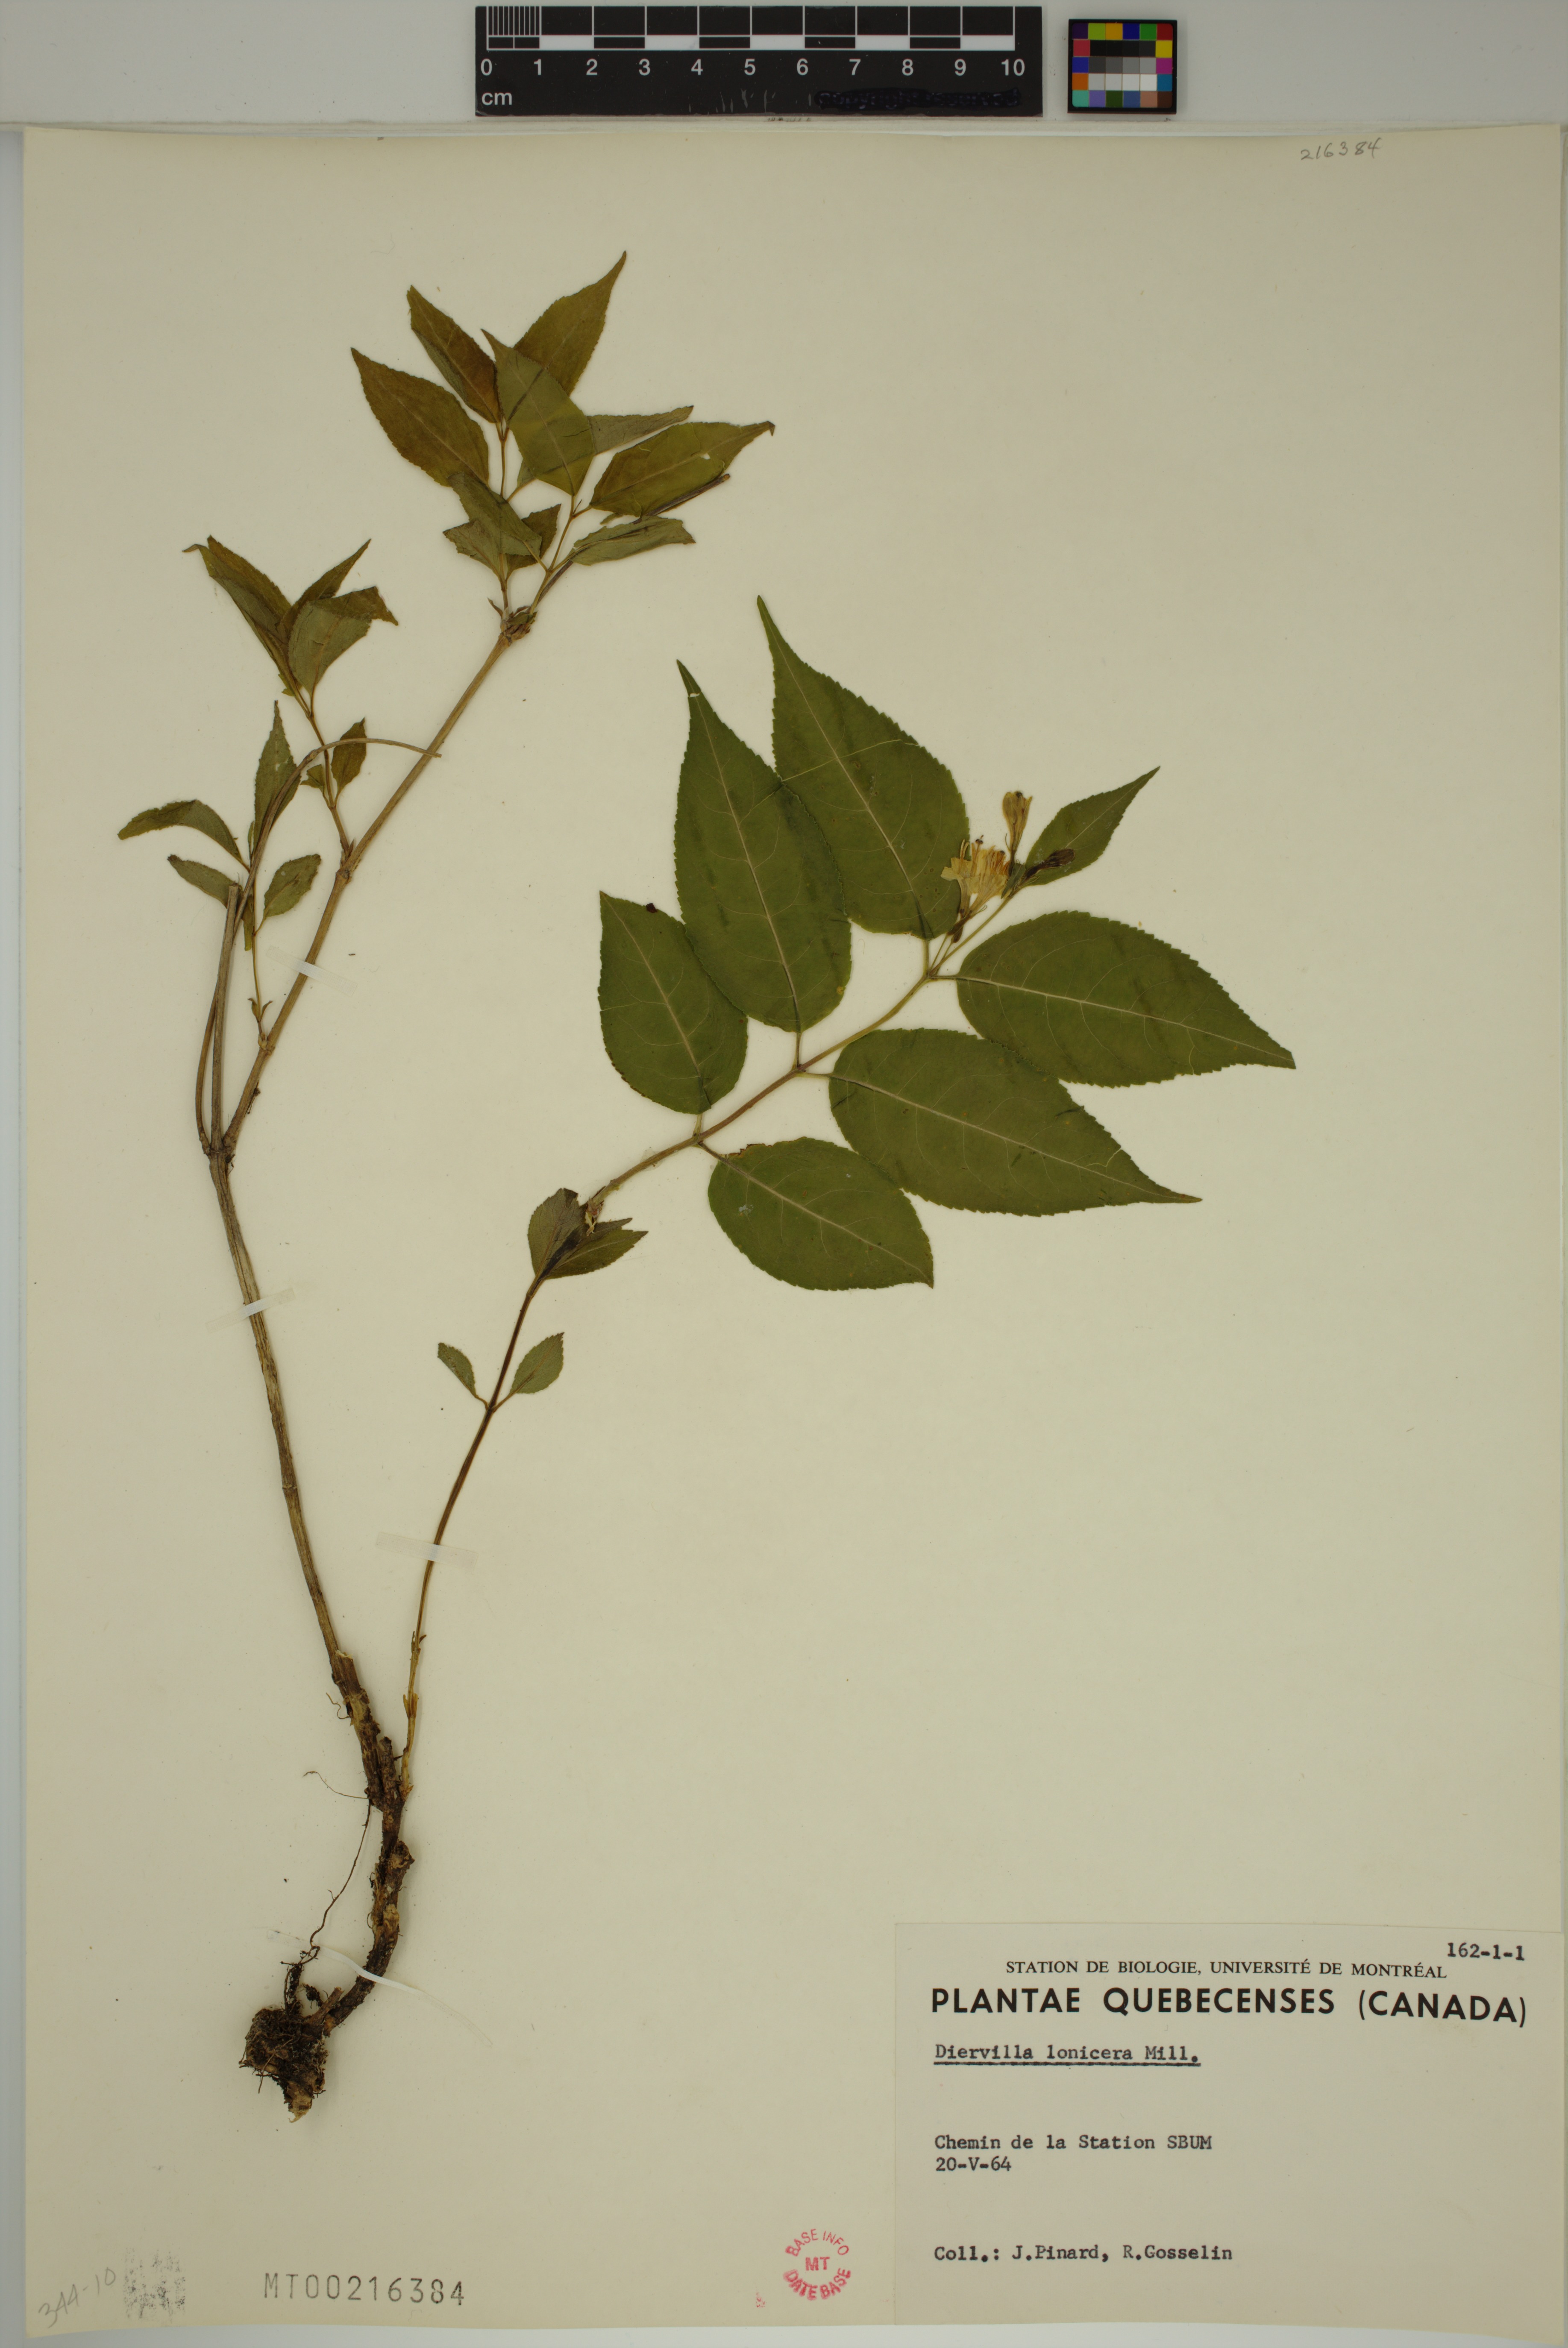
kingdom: Plantae
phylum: Tracheophyta
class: Magnoliopsida
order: Dipsacales
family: Caprifoliaceae
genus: Diervilla
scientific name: Diervilla lonicera
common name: Bush-honeysuckle
